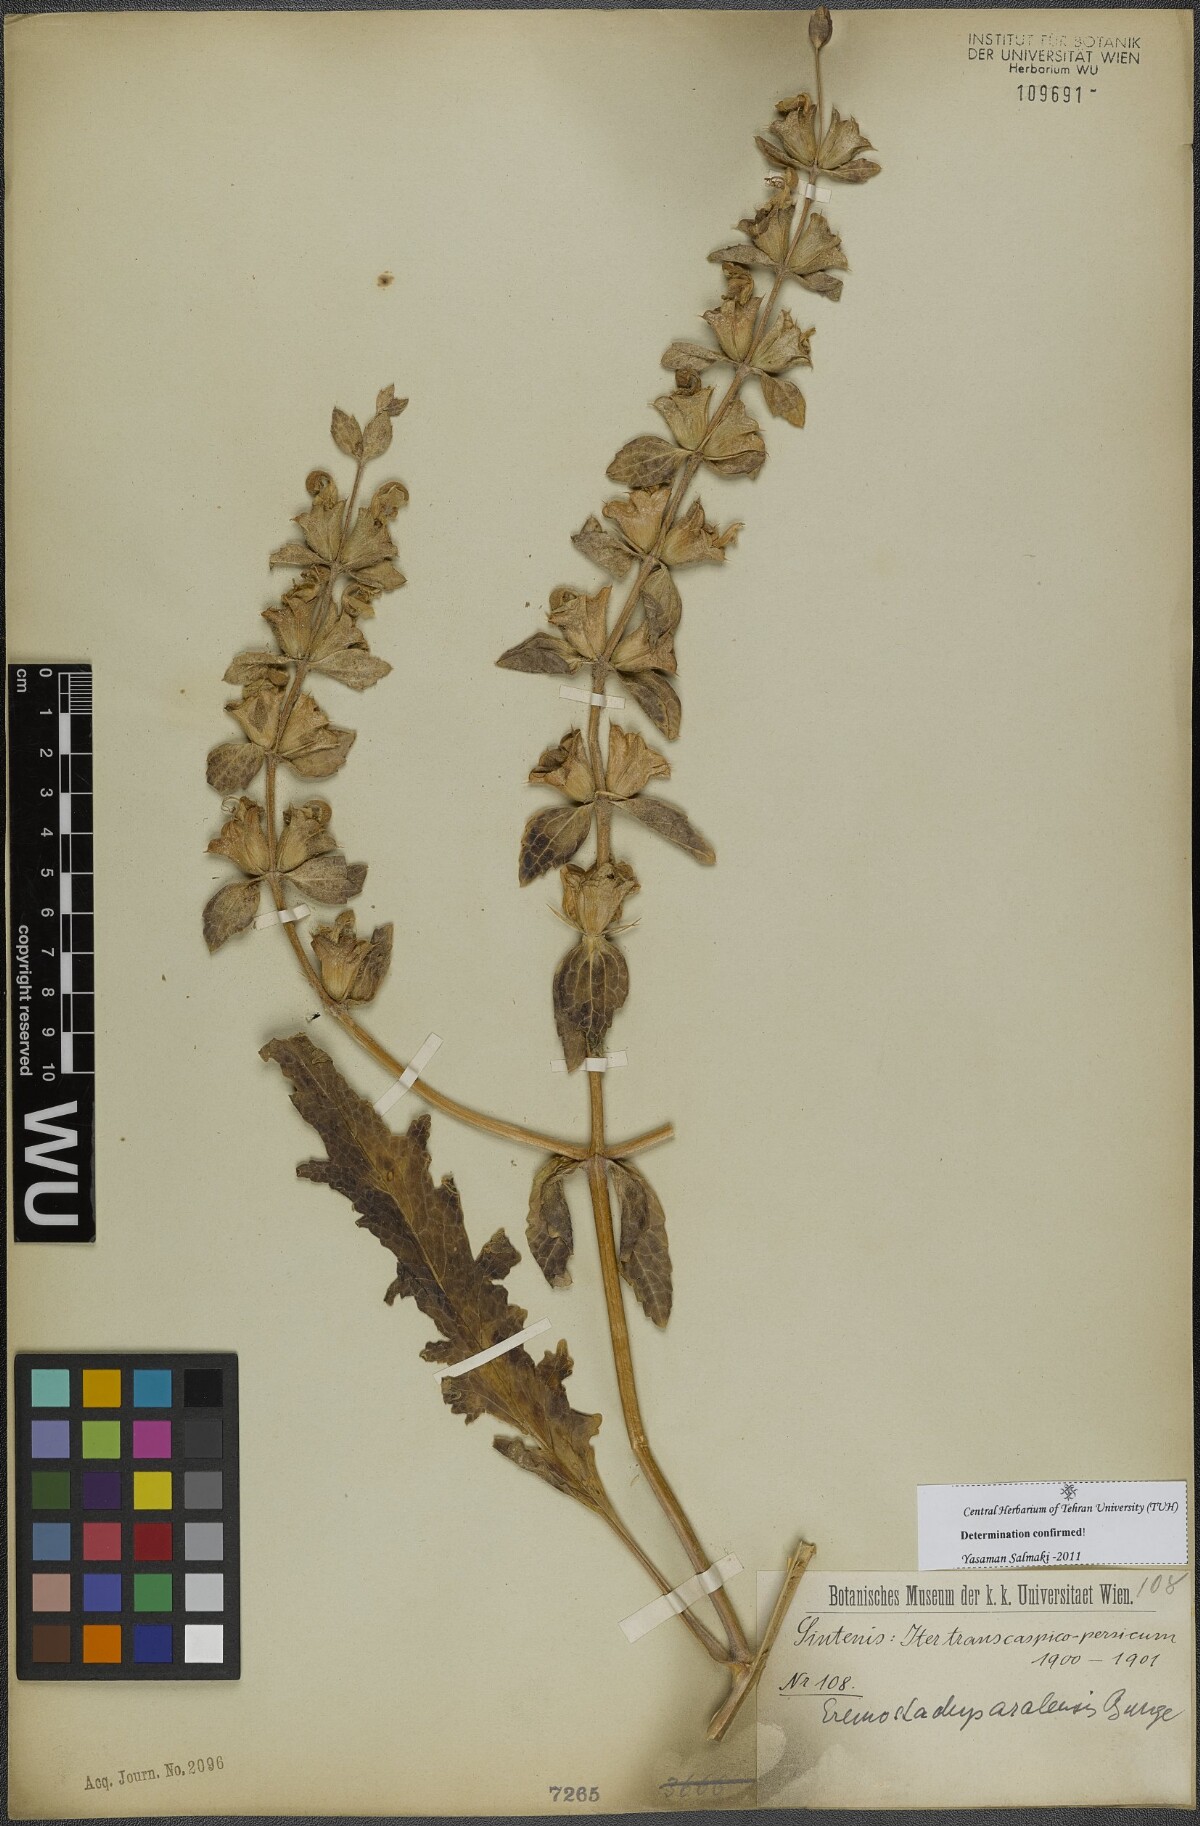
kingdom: Plantae
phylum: Tracheophyta
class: Magnoliopsida
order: Lamiales
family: Lamiaceae
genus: Phlomoides
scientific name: Phlomoides aralensis
